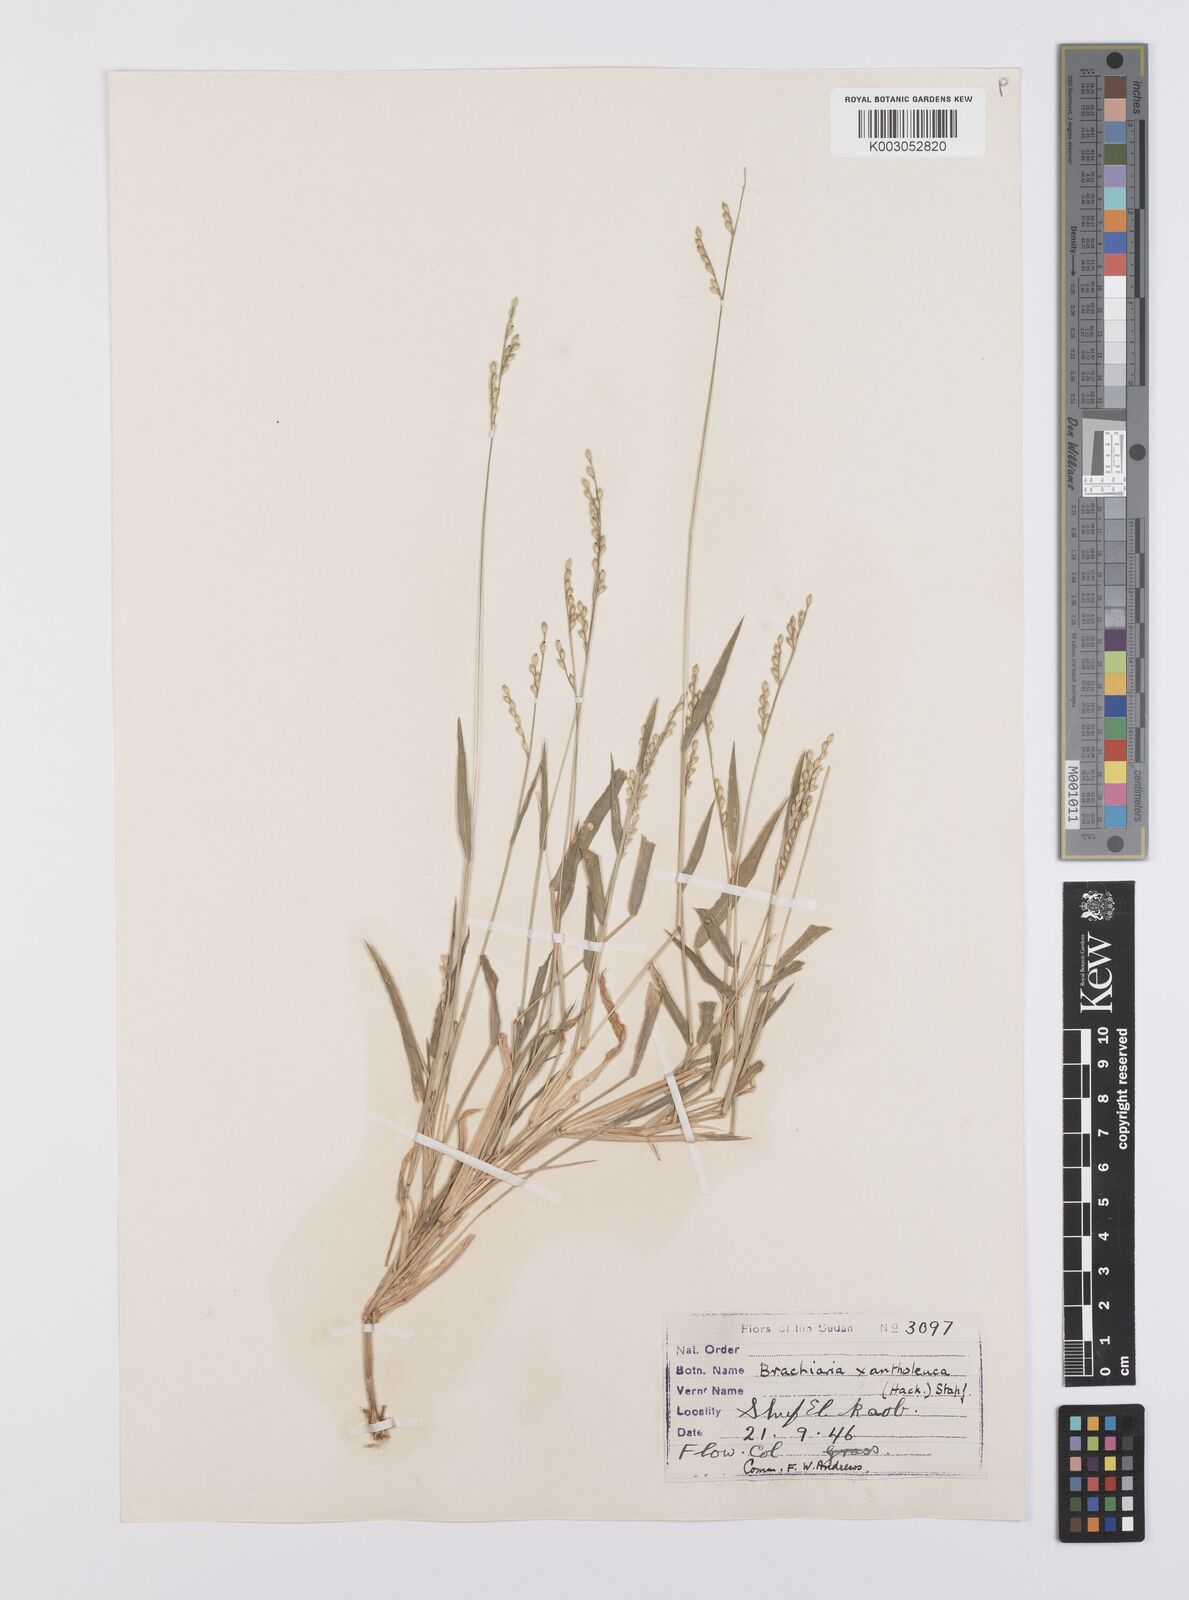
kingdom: Plantae
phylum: Tracheophyta
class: Liliopsida
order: Poales
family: Poaceae
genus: Urochloa
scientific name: Urochloa xantholeuca
